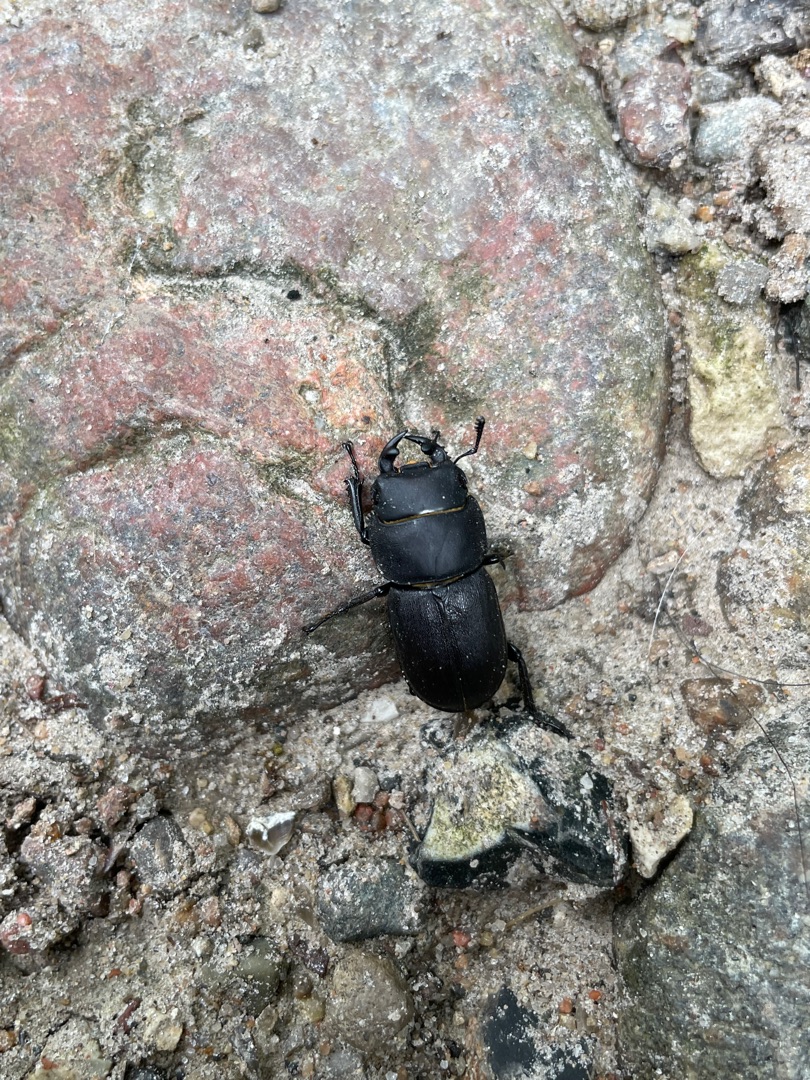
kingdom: Animalia
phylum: Arthropoda
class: Insecta
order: Coleoptera
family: Lucanidae
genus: Dorcus
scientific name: Dorcus parallelipipedus
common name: Bøghjort
